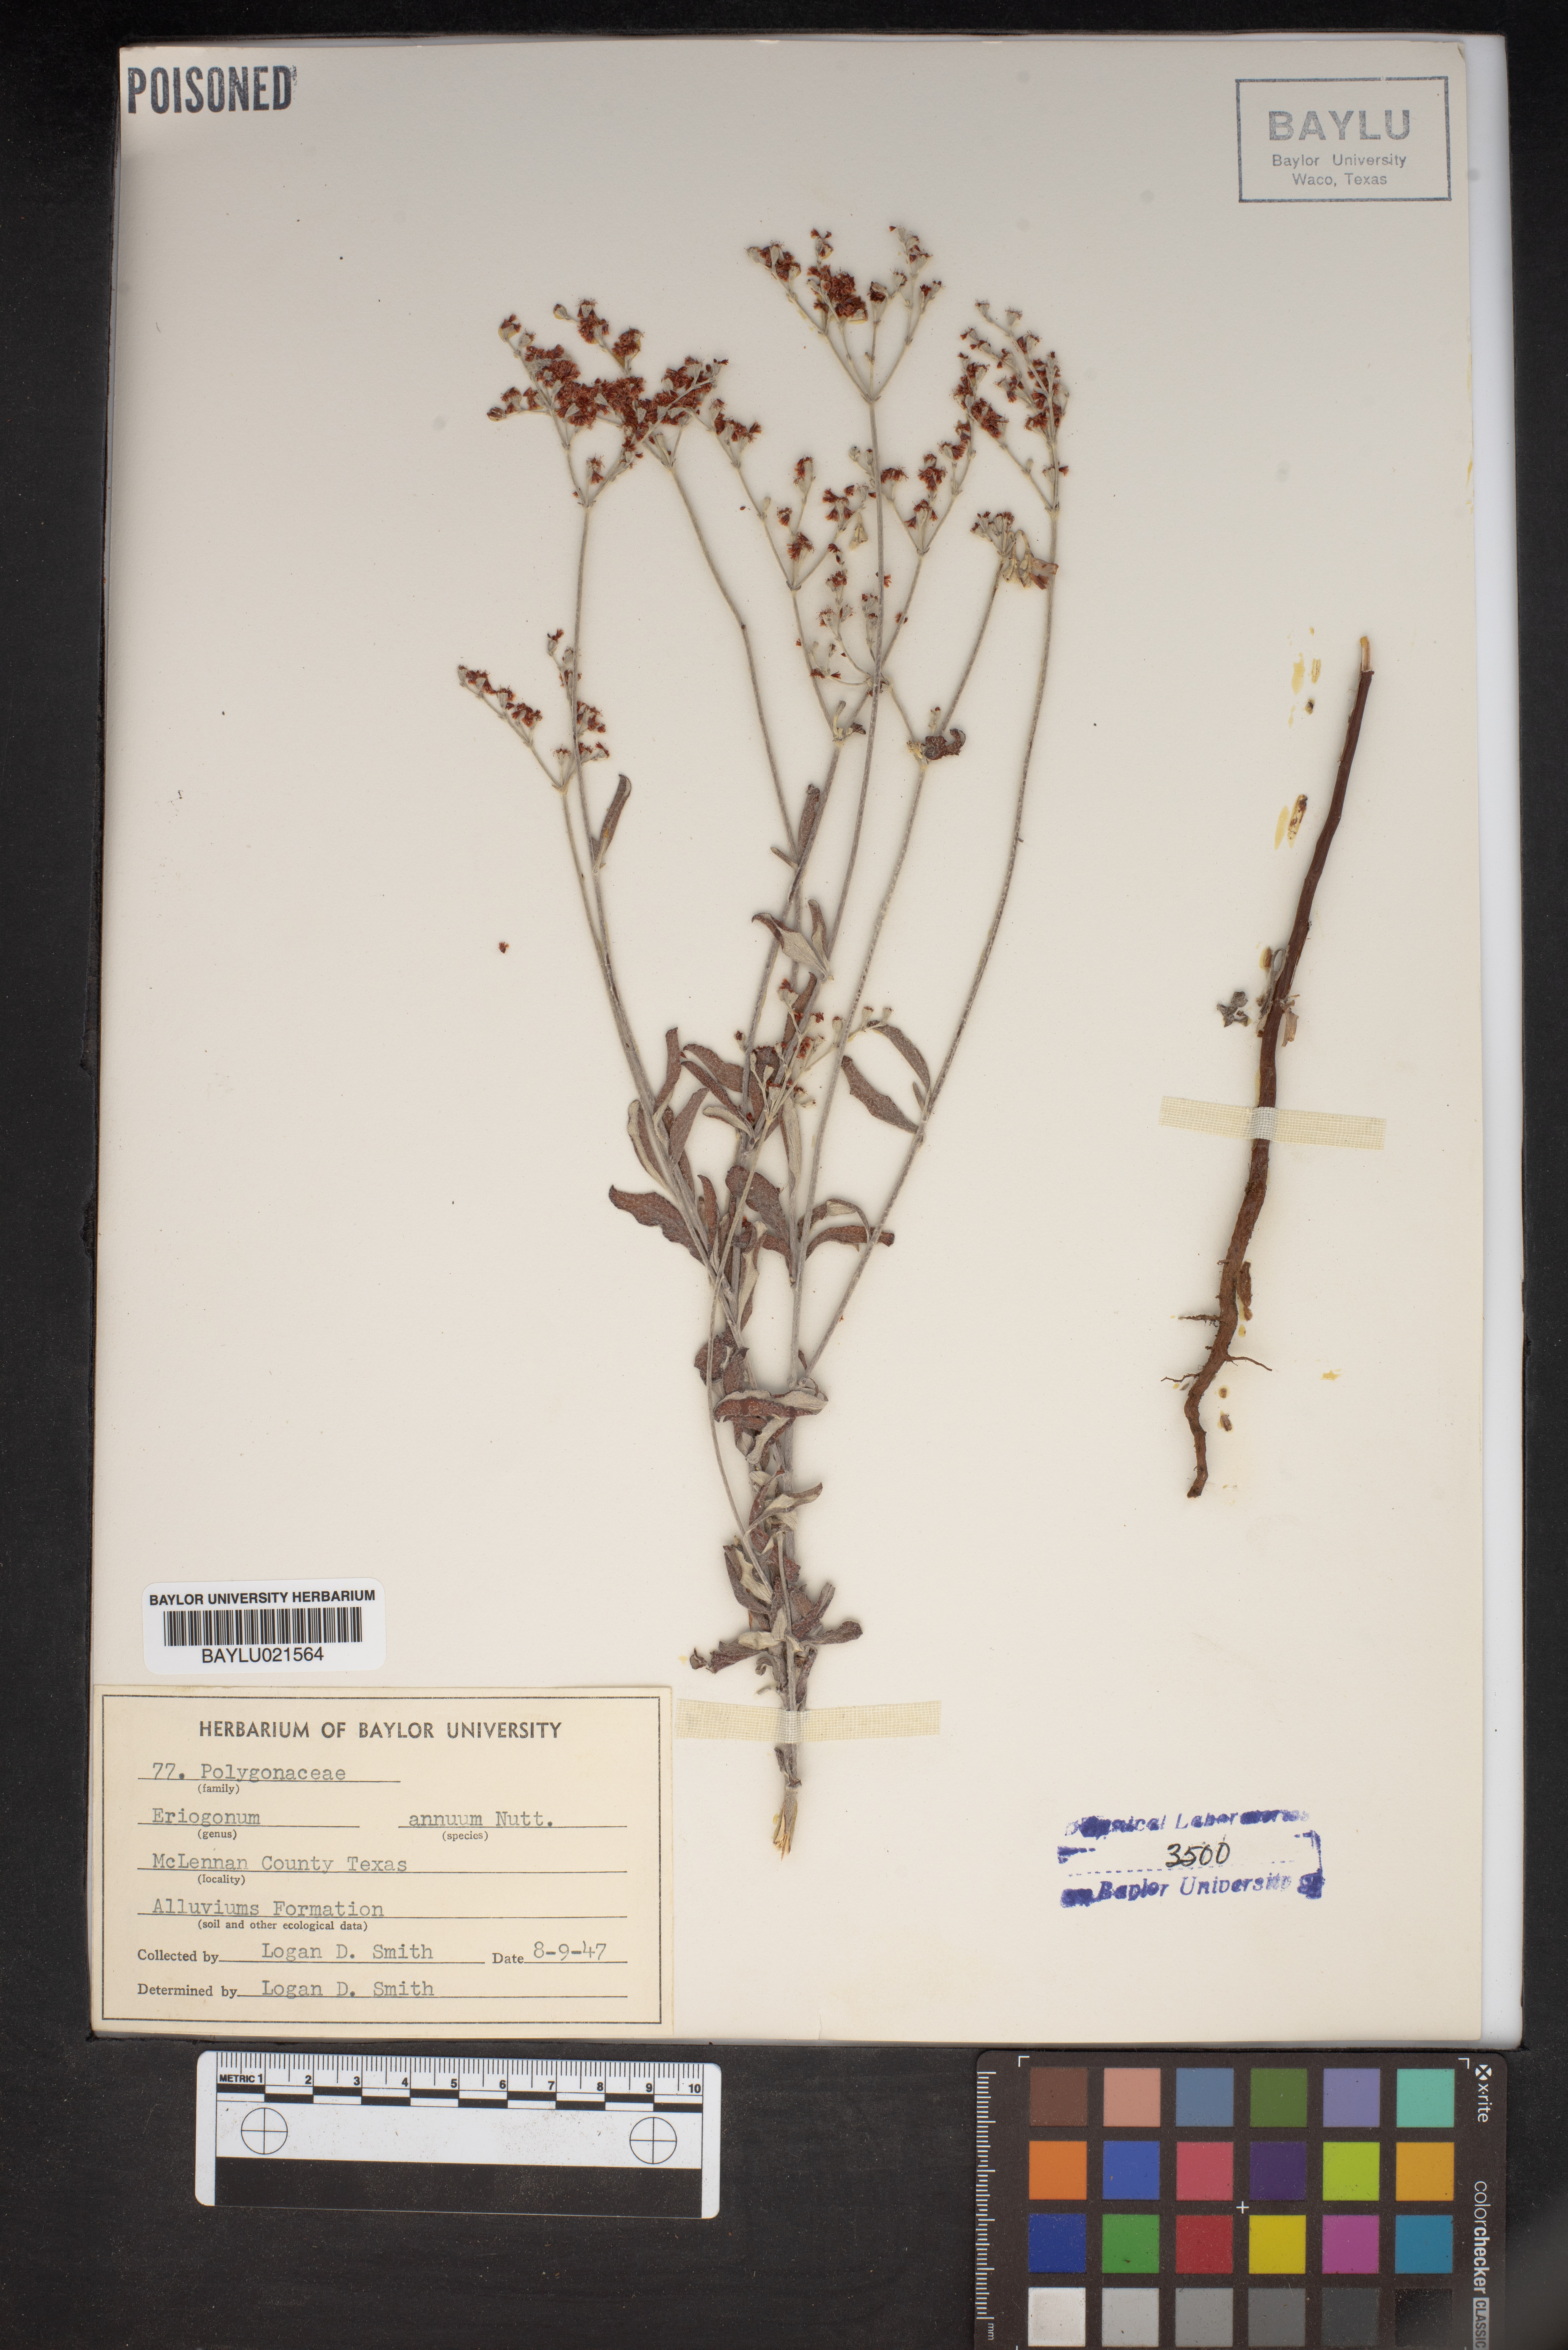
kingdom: Plantae
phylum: Tracheophyta
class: Magnoliopsida
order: Caryophyllales
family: Polygonaceae
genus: Eriogonum
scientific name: Eriogonum annuum
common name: Annual wild buckwheat
